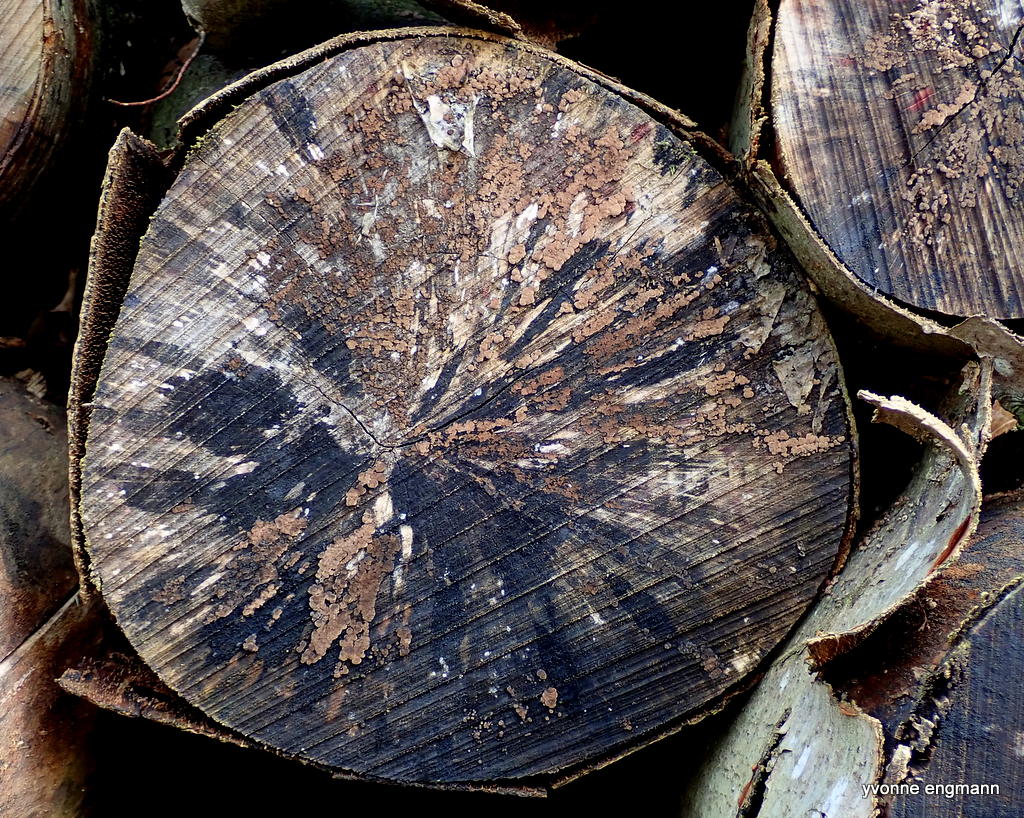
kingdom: Fungi
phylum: Ascomycota
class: Leotiomycetes
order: Helotiales
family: Helotiaceae
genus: Bispora
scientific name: Bispora pallescens
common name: måtte-snitskive
